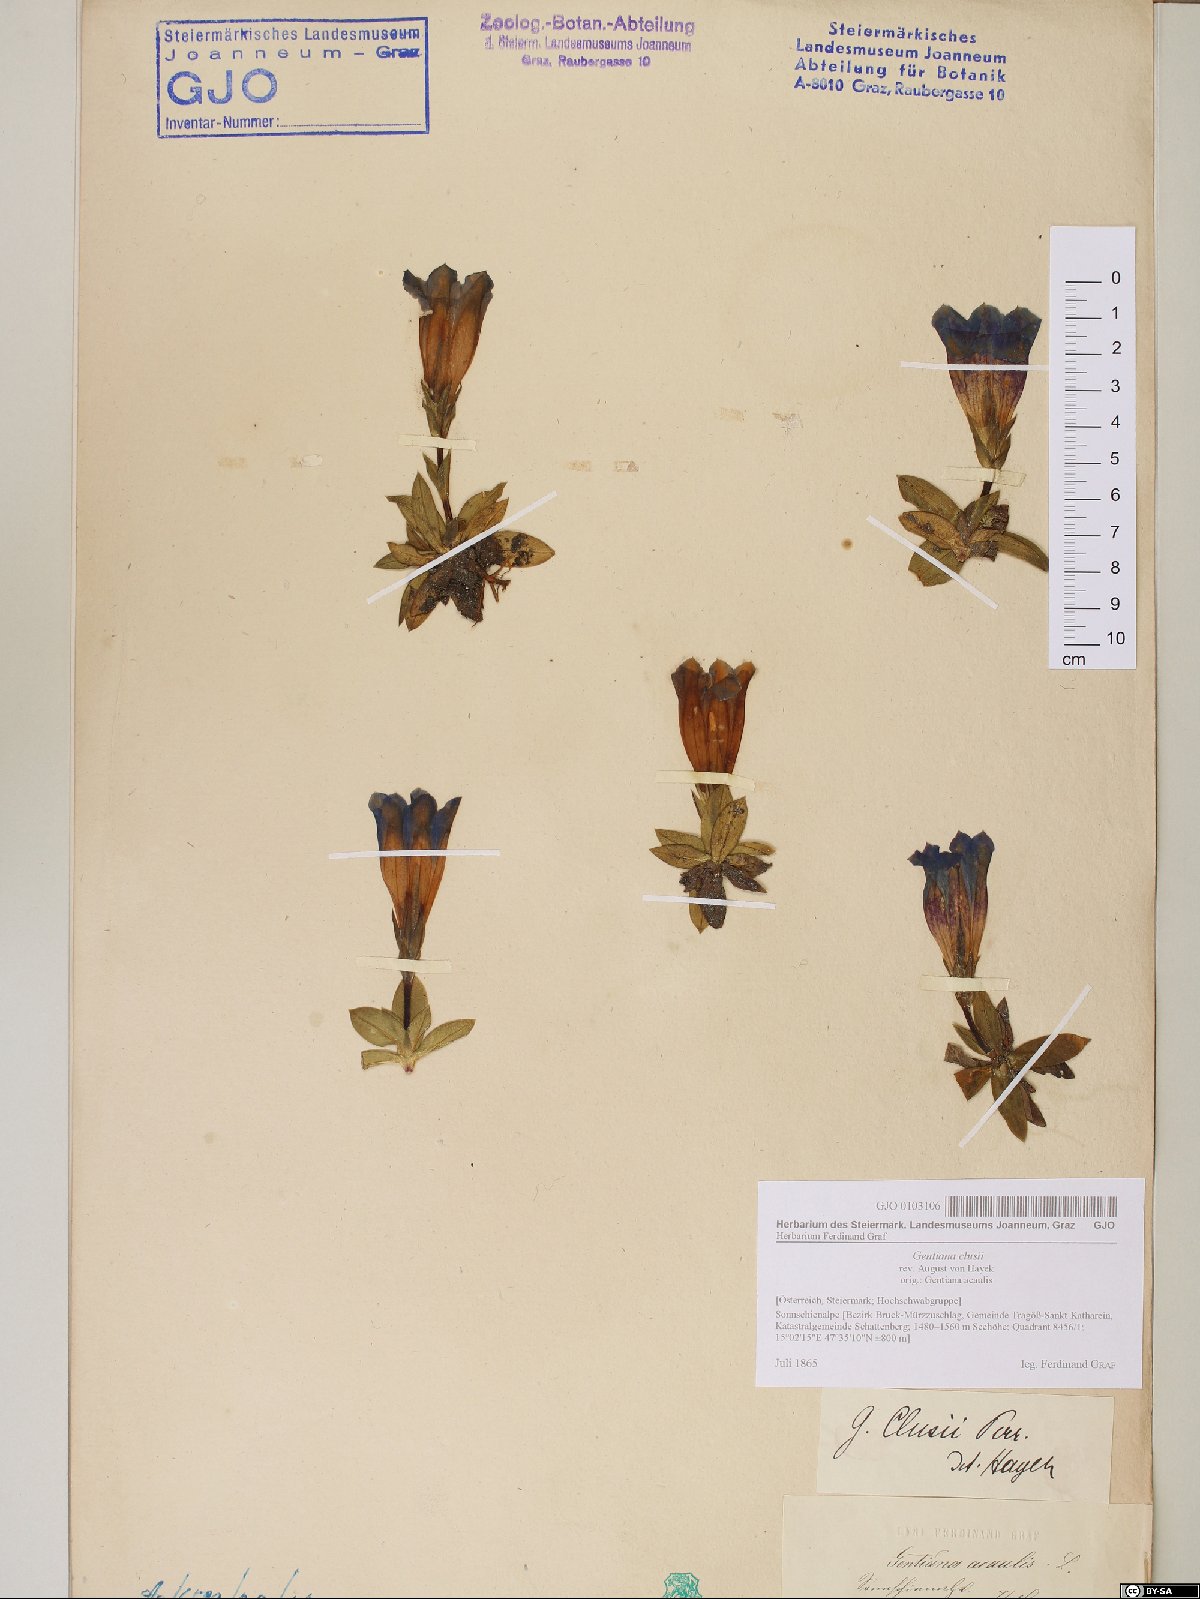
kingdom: Plantae
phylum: Tracheophyta
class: Magnoliopsida
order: Gentianales
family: Gentianaceae
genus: Gentiana
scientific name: Gentiana clusii
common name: Trumpet gentian
